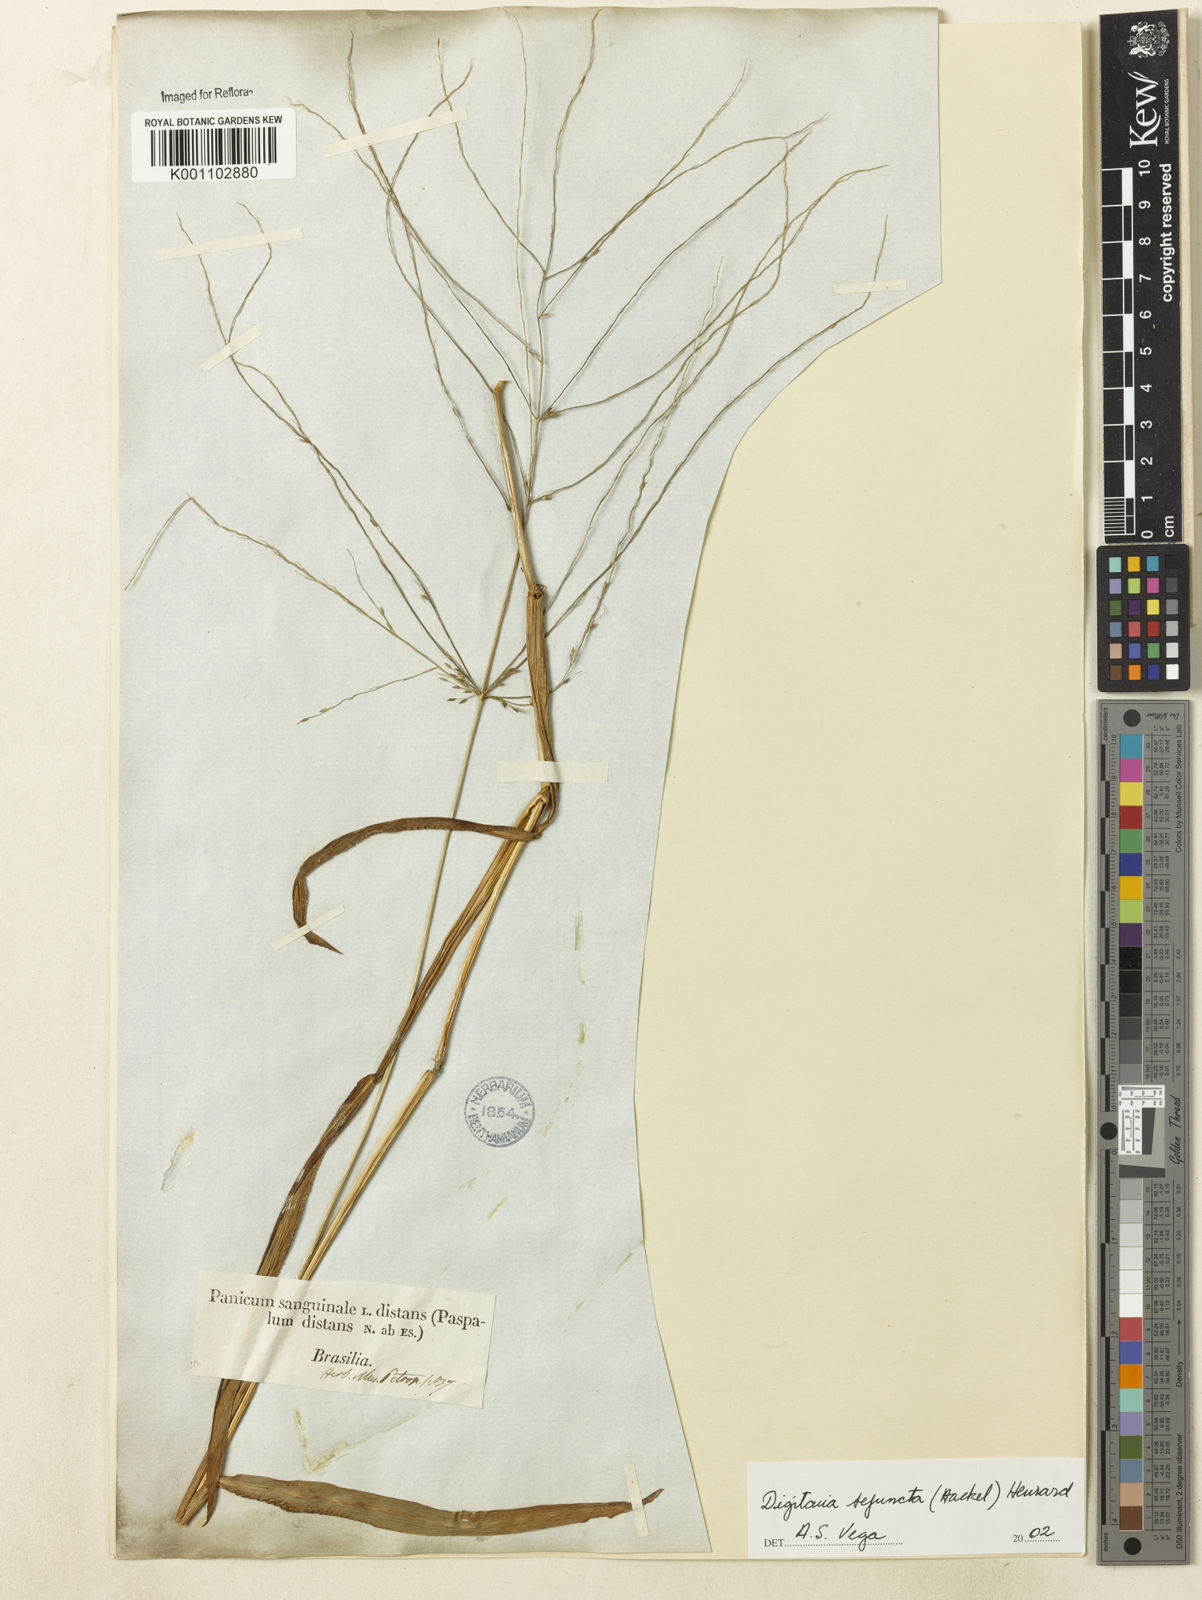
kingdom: Plantae
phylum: Tracheophyta
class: Liliopsida
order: Poales
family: Poaceae
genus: Digitaria
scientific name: Digitaria sejuncta
